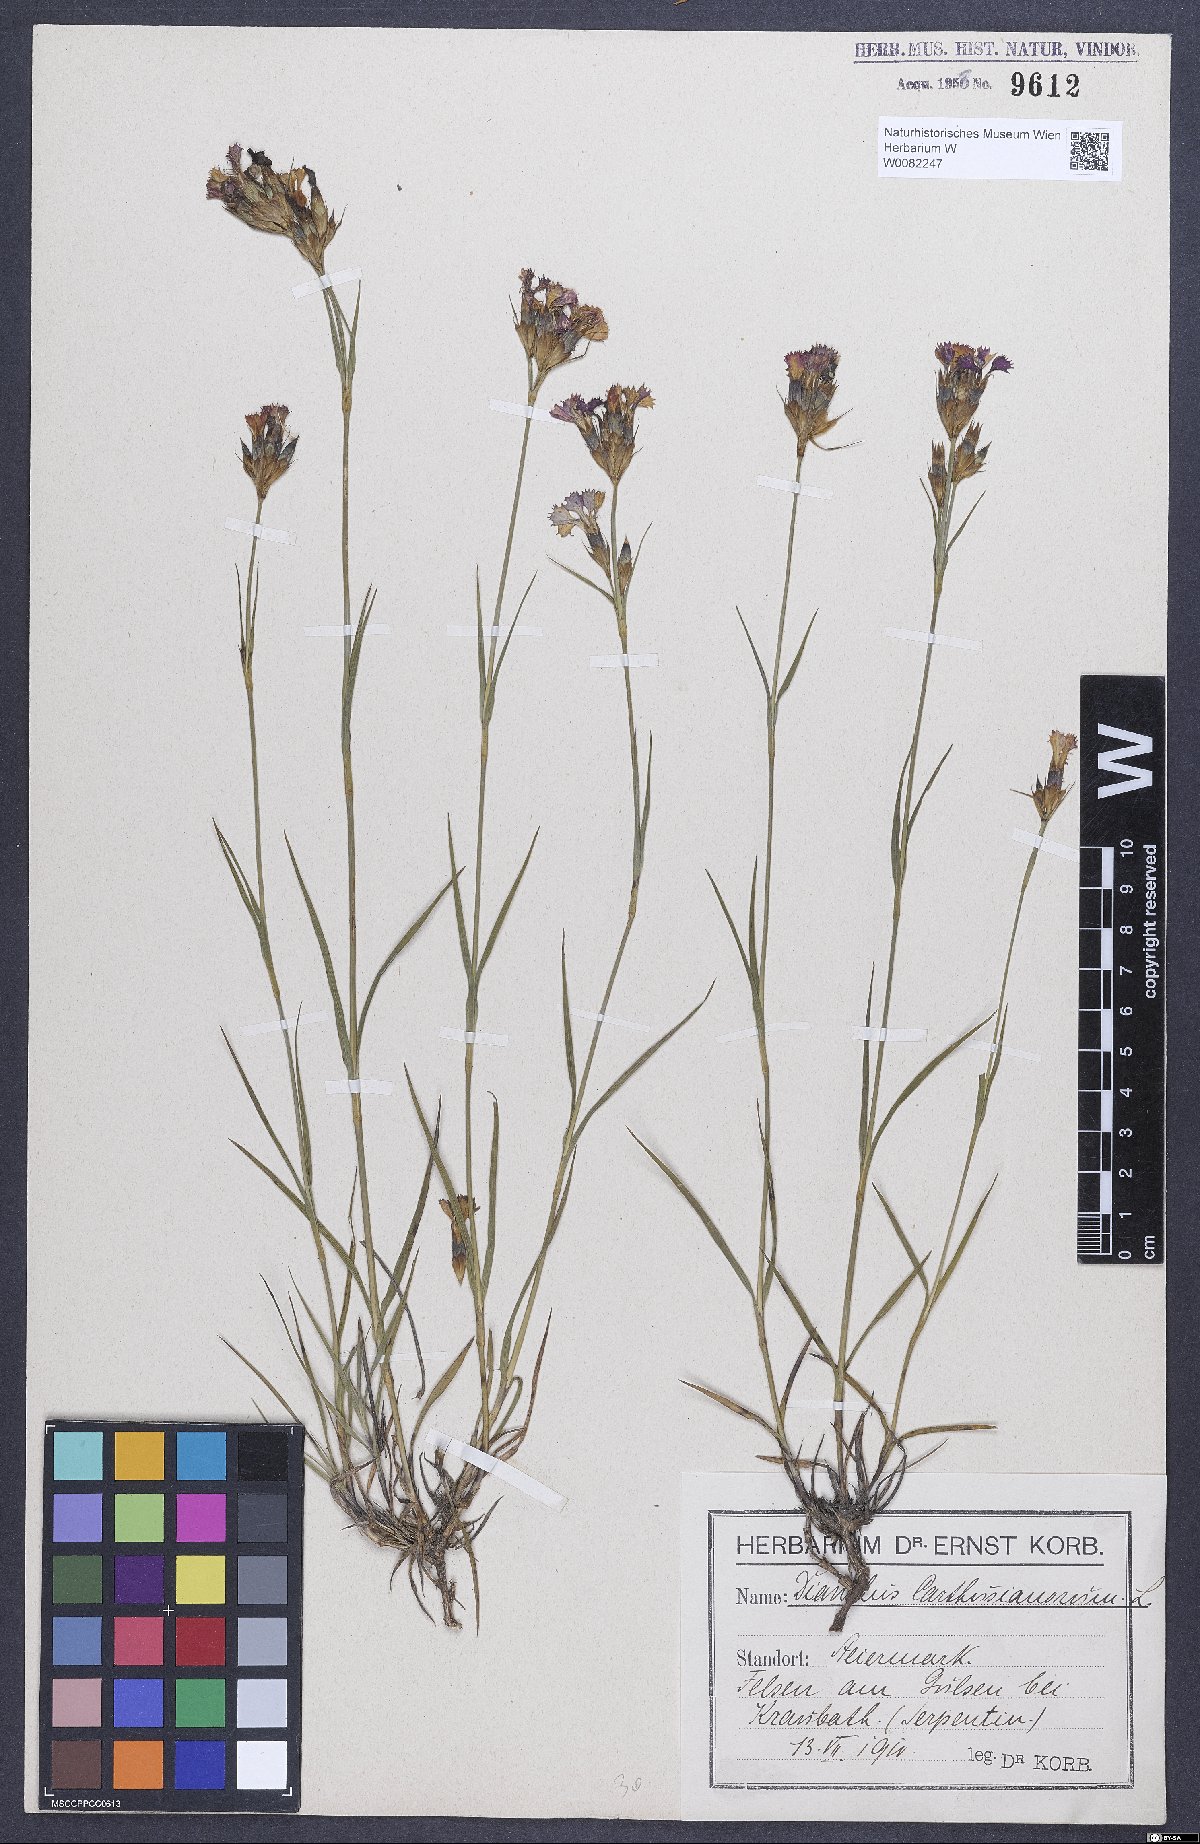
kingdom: Plantae
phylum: Tracheophyta
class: Magnoliopsida
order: Caryophyllales
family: Caryophyllaceae
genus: Dianthus
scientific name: Dianthus carthusianorum
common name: Carthusian pink
